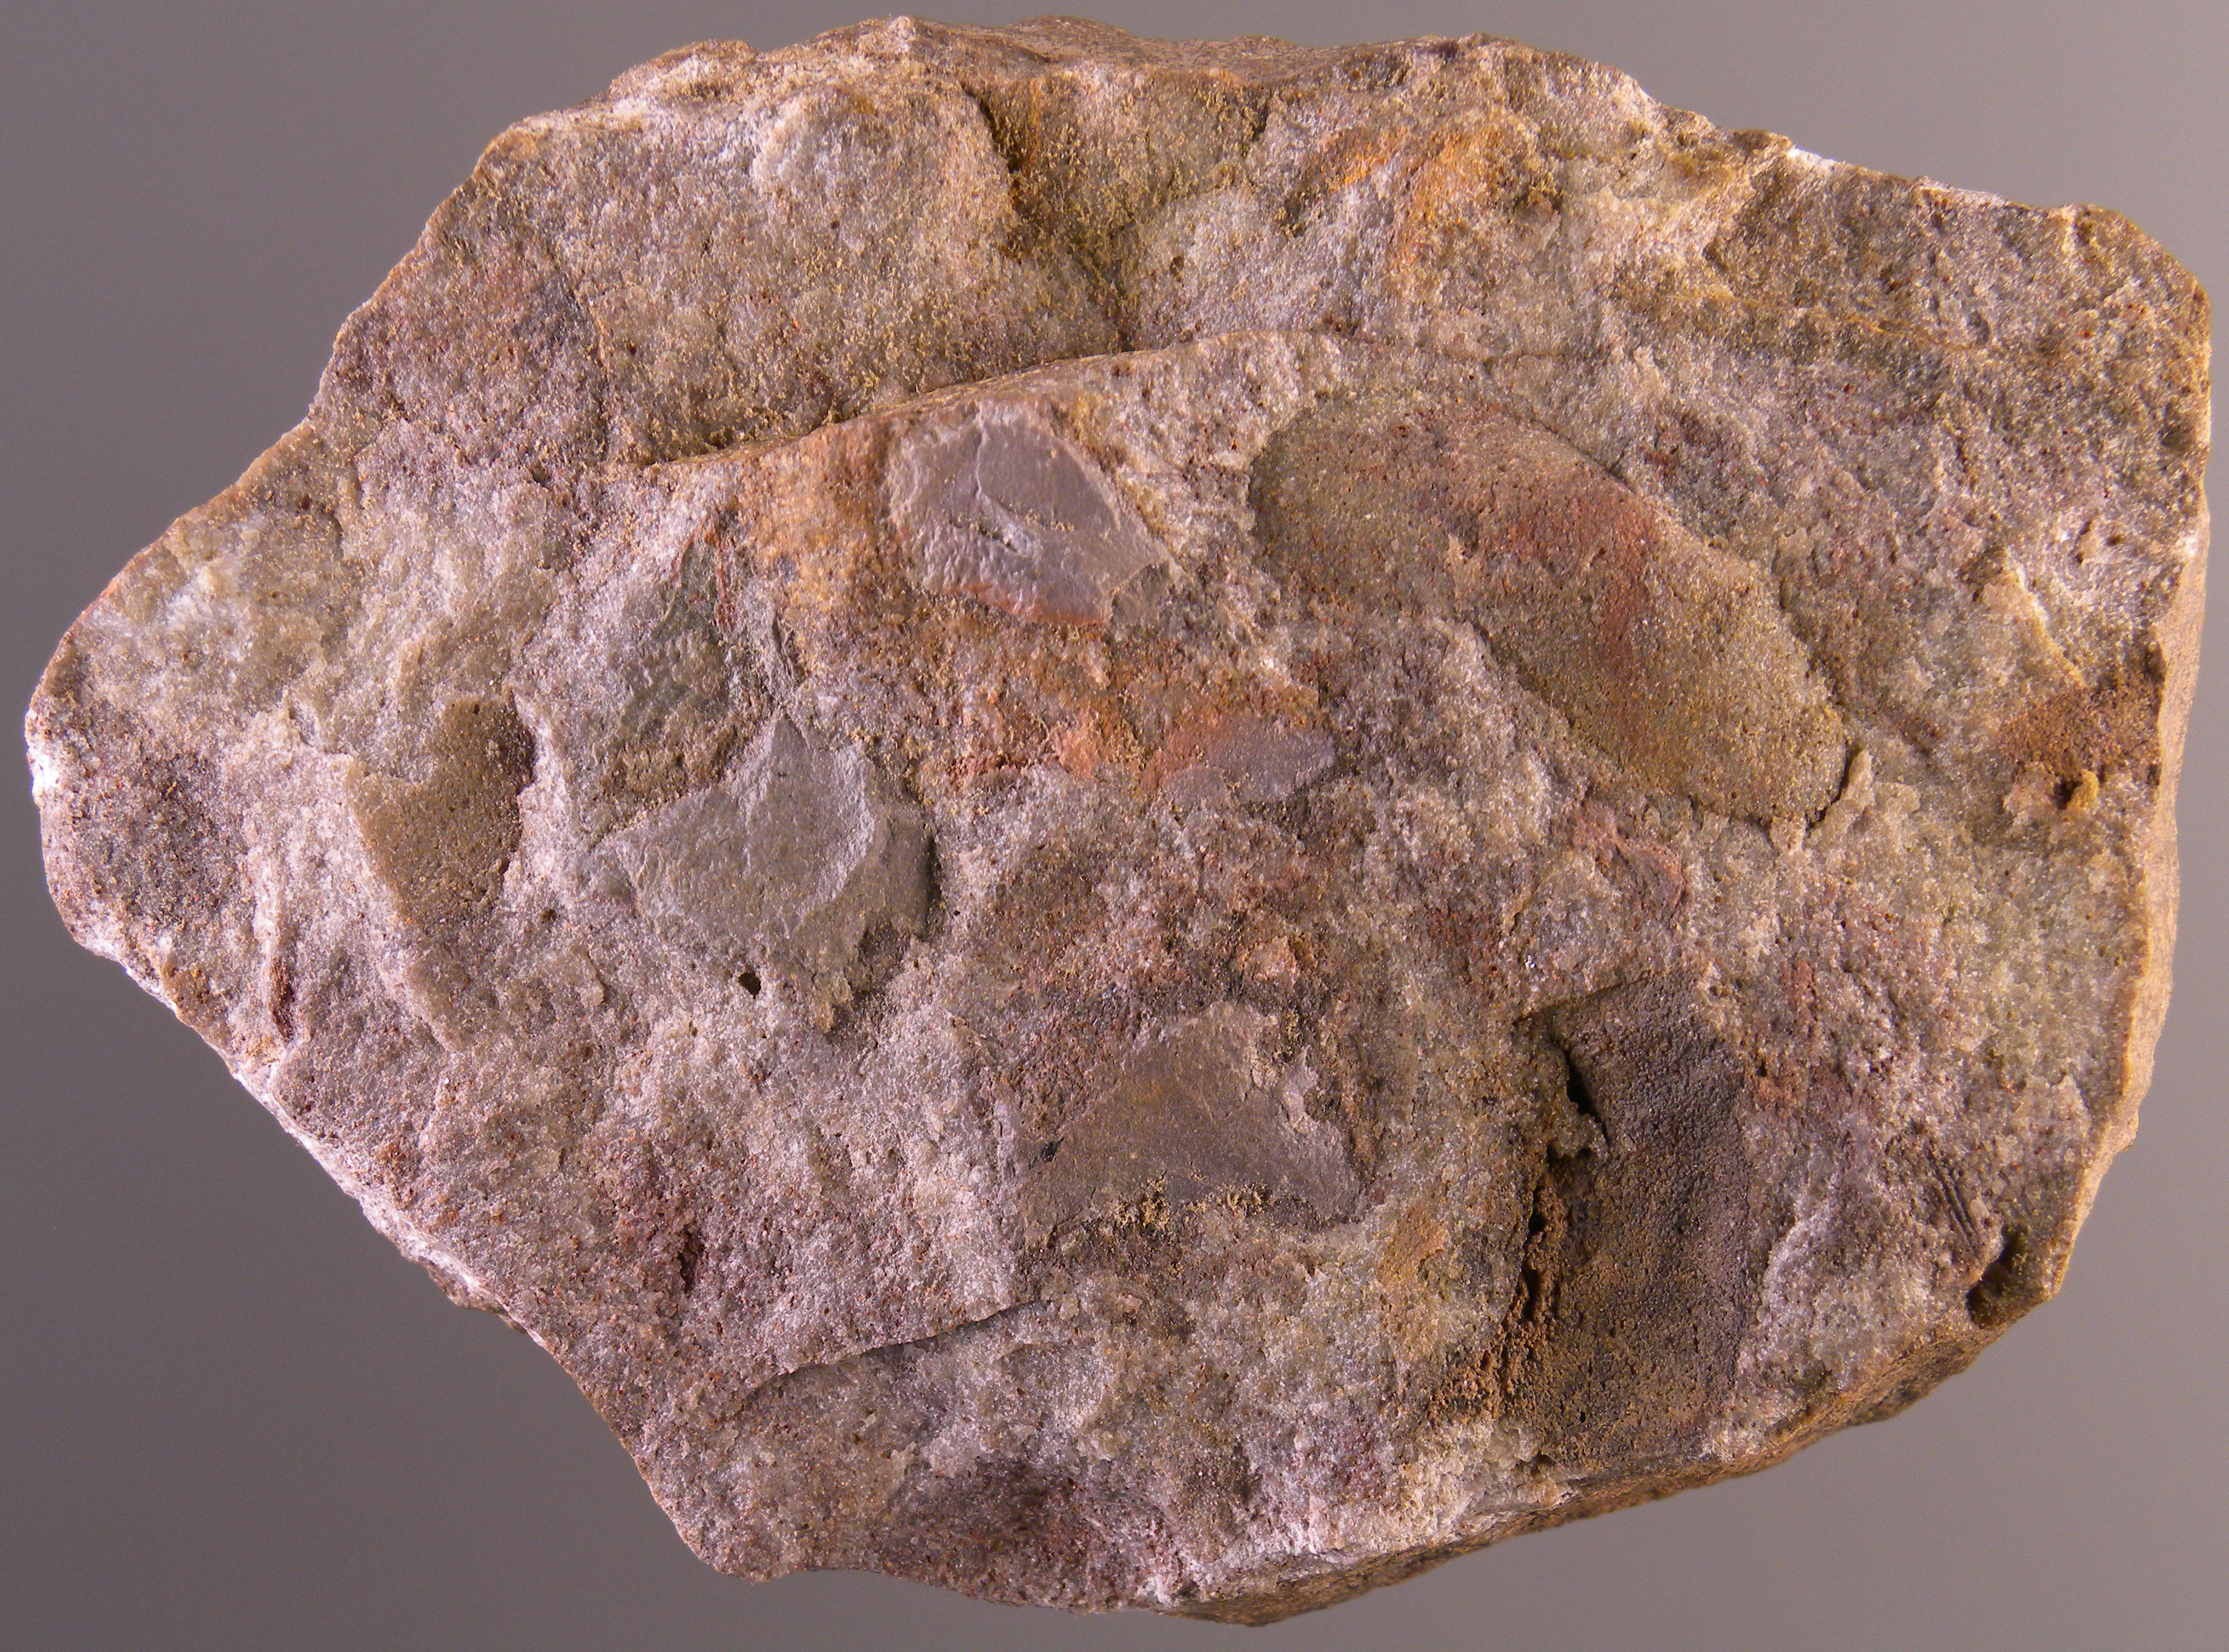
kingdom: Animalia
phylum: Mollusca
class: Bivalvia
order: Modiomorphida
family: Modiomorphidae
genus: Modiomorpha
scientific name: Modiomorpha
